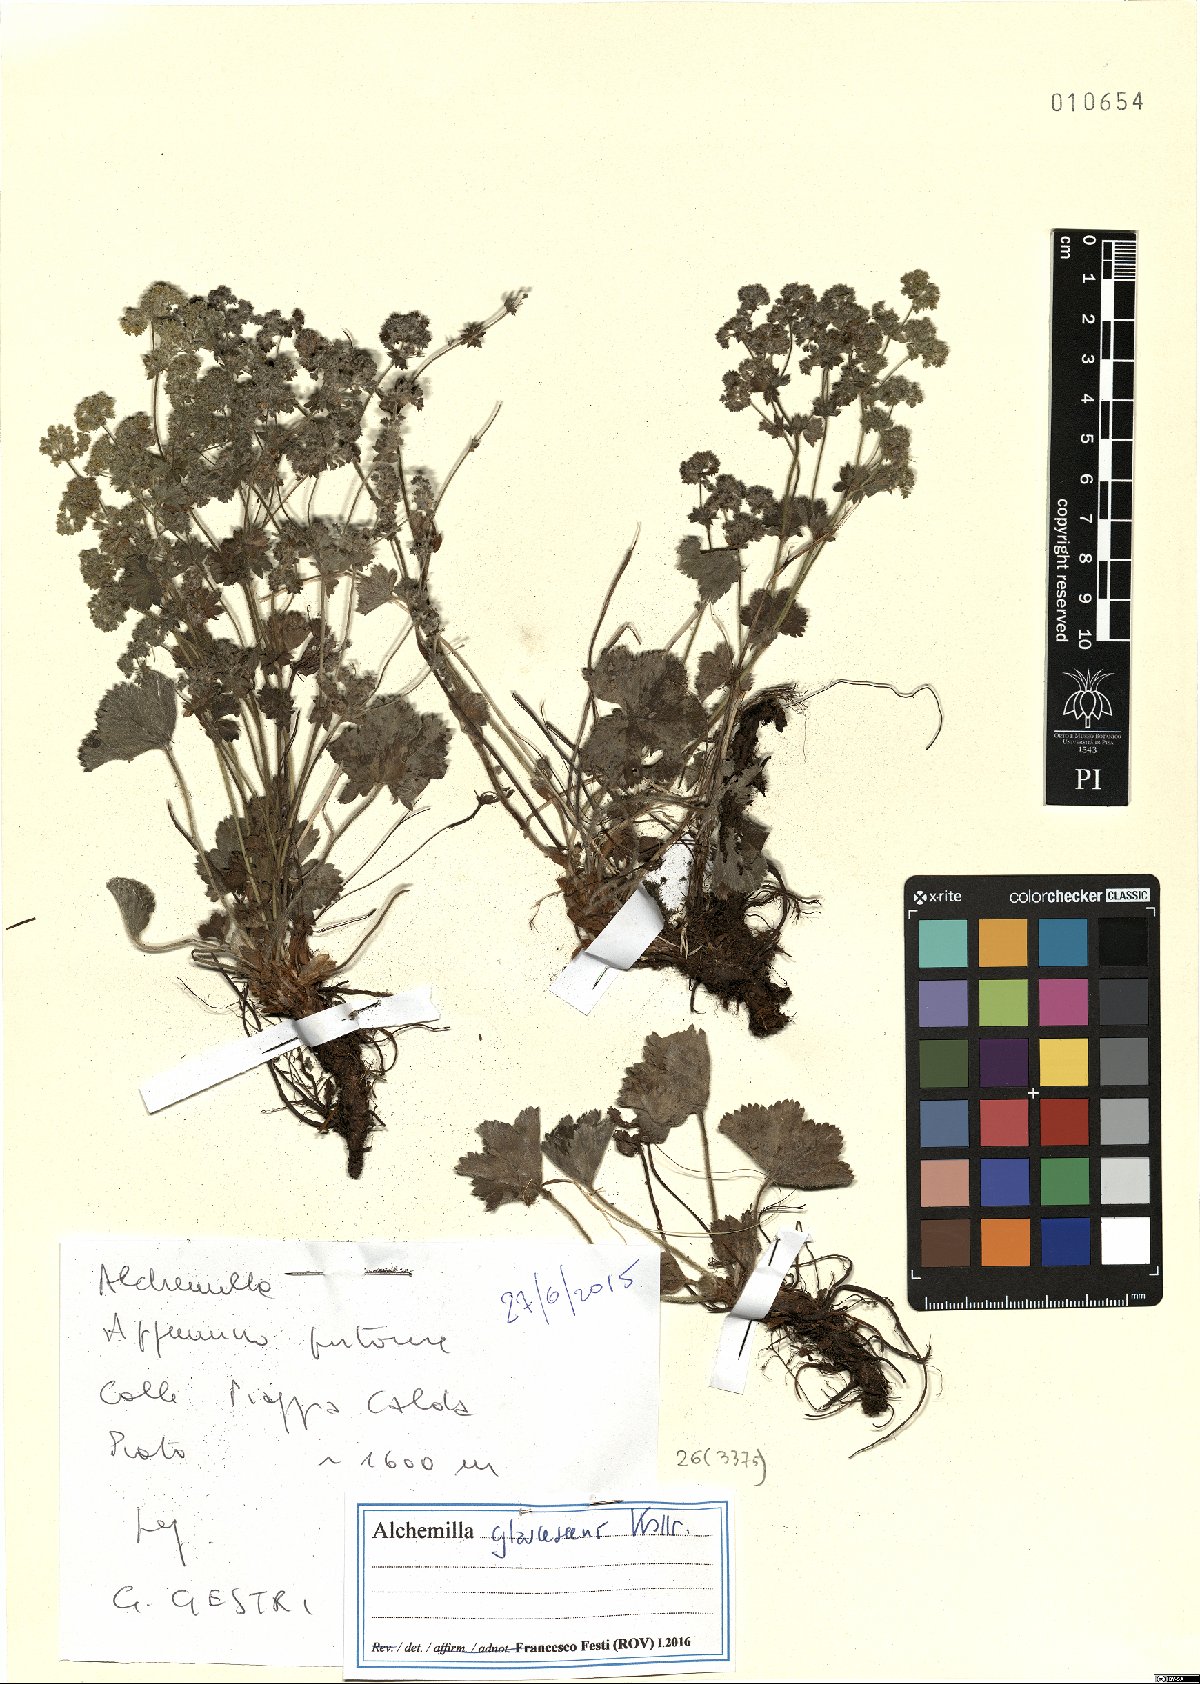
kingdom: Plantae
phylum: Tracheophyta
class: Magnoliopsida
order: Rosales
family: Rosaceae
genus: Alchemilla
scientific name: Alchemilla glaucescens
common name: Silky lady's mantle
